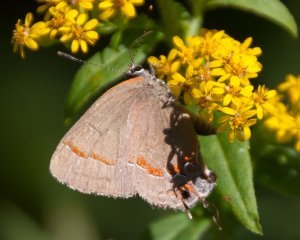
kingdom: Animalia
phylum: Arthropoda
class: Insecta
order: Lepidoptera
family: Lycaenidae
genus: Calycopis
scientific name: Calycopis cecrops
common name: Red-banded Hairstreak
